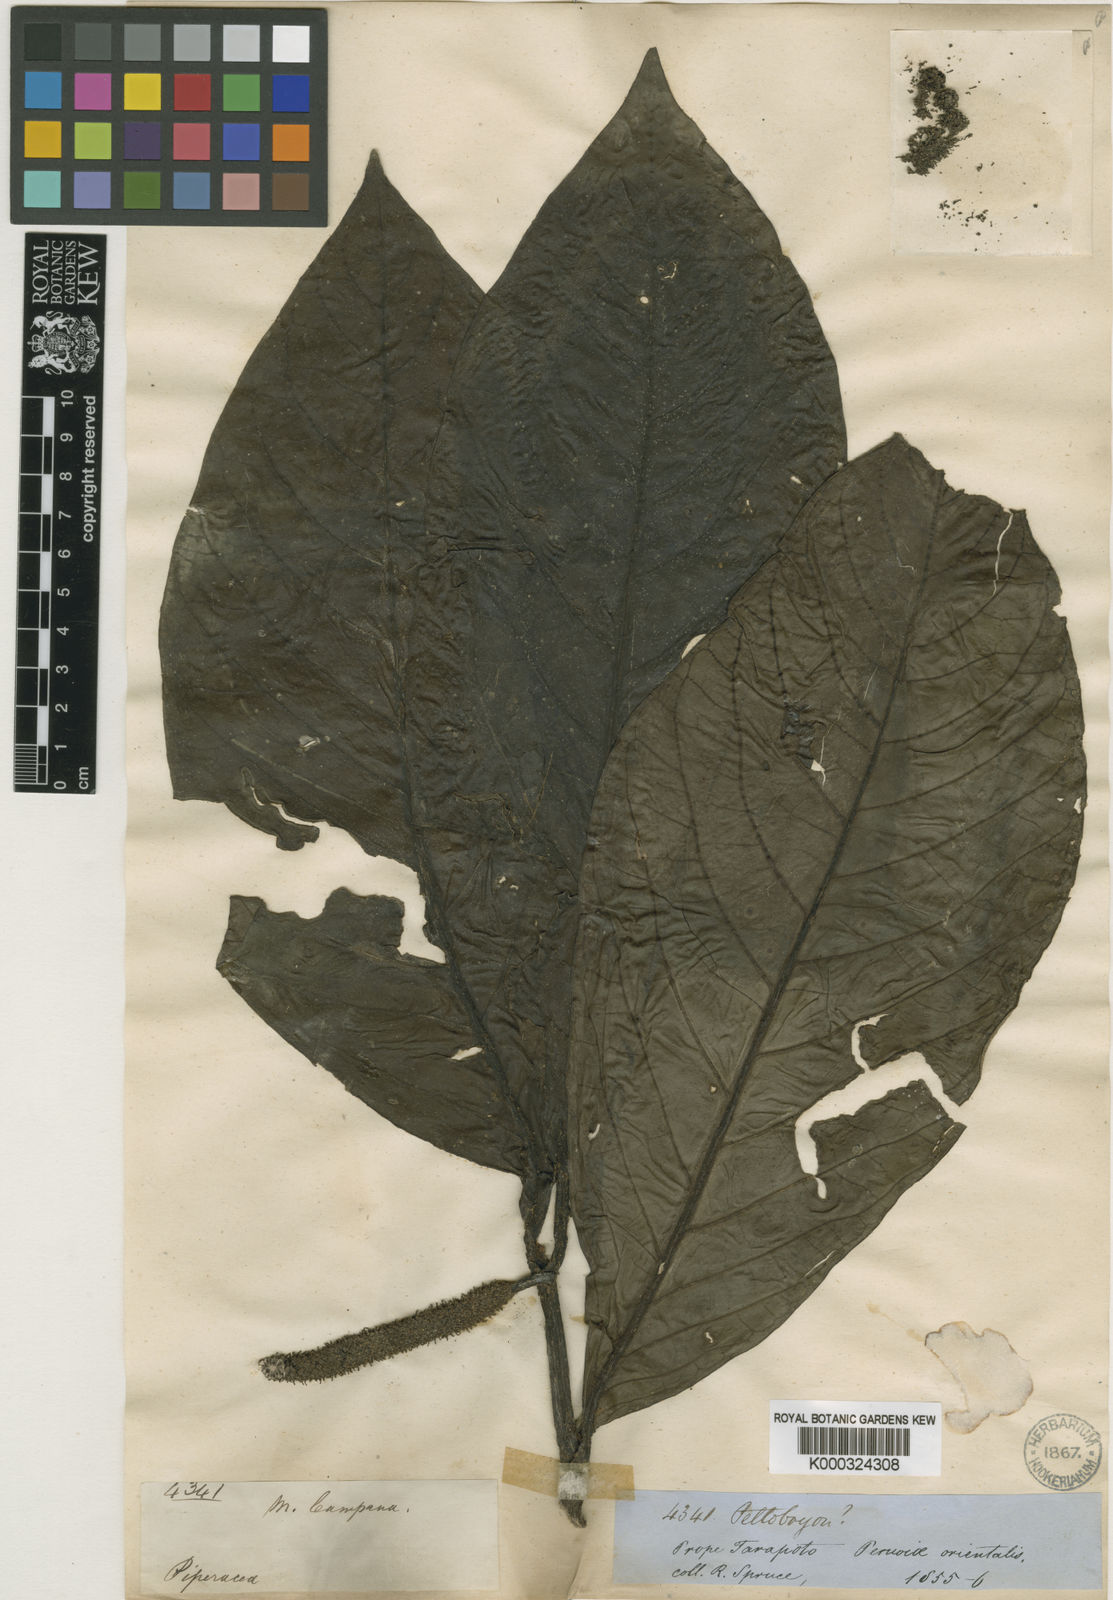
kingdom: Plantae
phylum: Tracheophyta
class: Magnoliopsida
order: Piperales
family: Piperaceae
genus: Piper
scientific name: Piper munchanum
